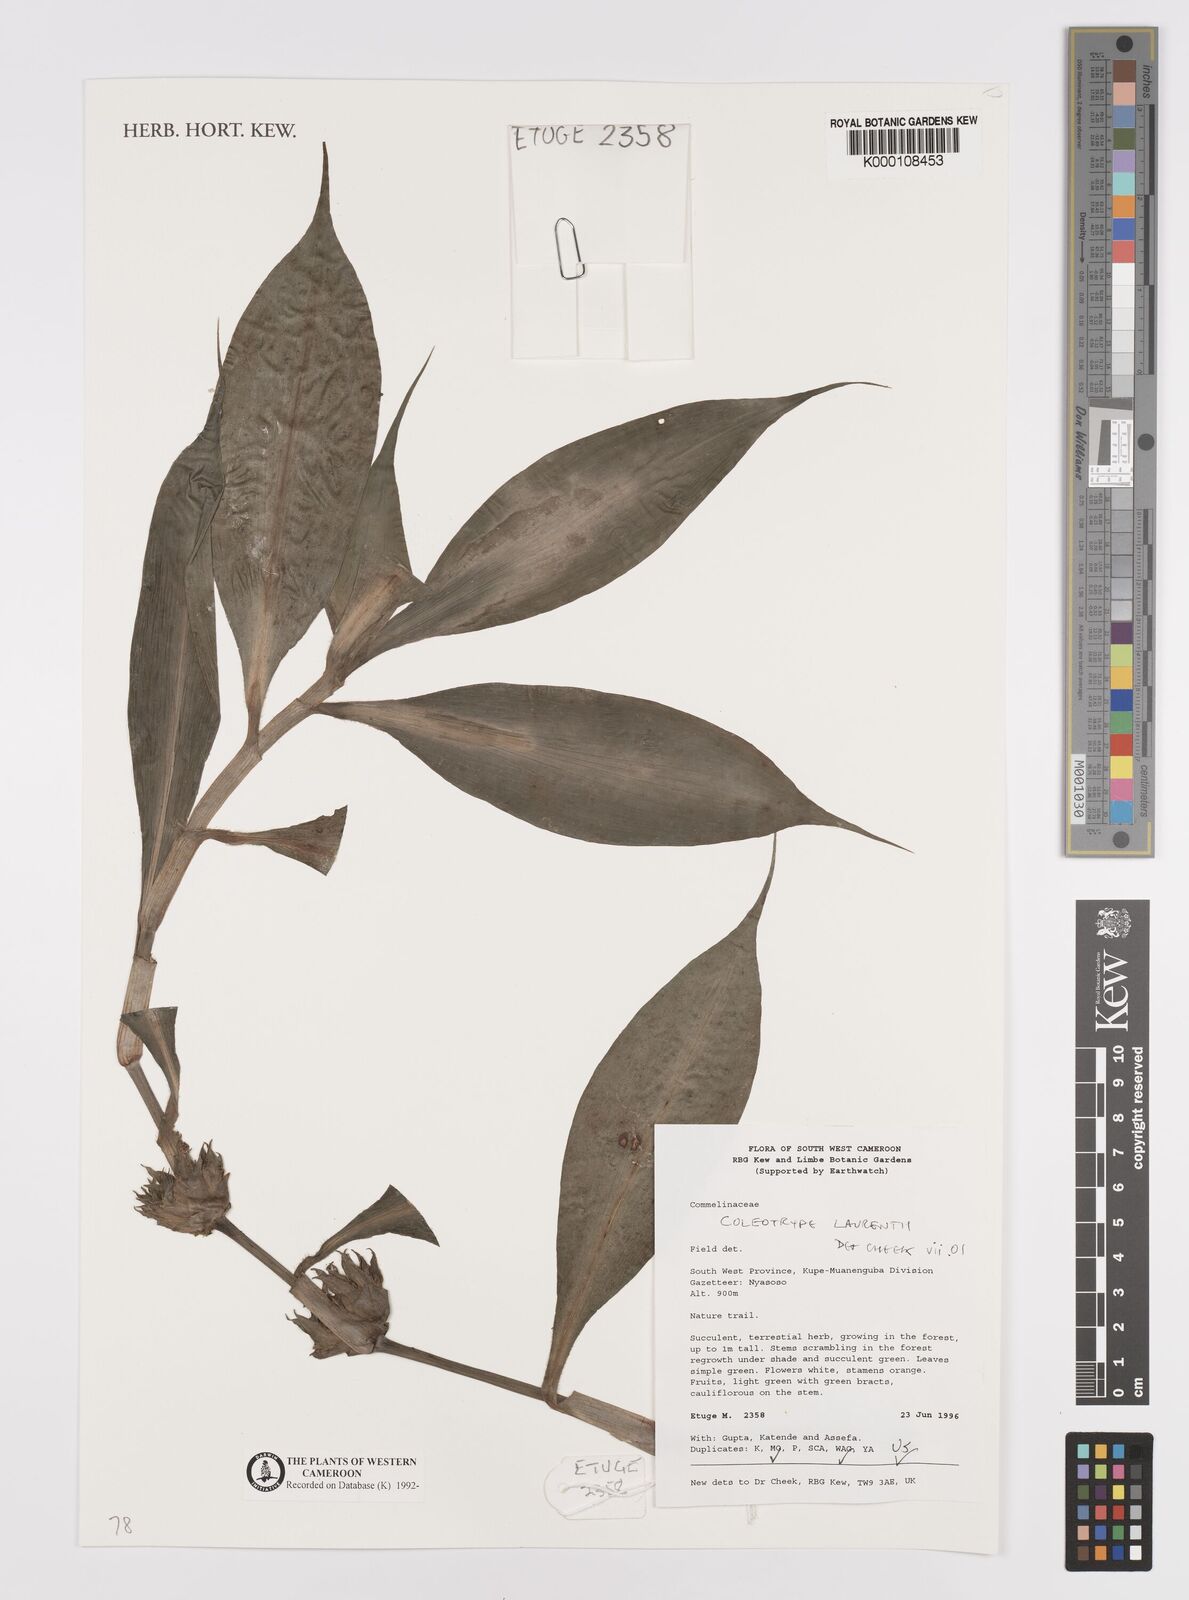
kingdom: Plantae
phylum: Tracheophyta
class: Liliopsida
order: Commelinales
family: Commelinaceae
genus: Coleotrype
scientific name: Coleotrype laurentii
